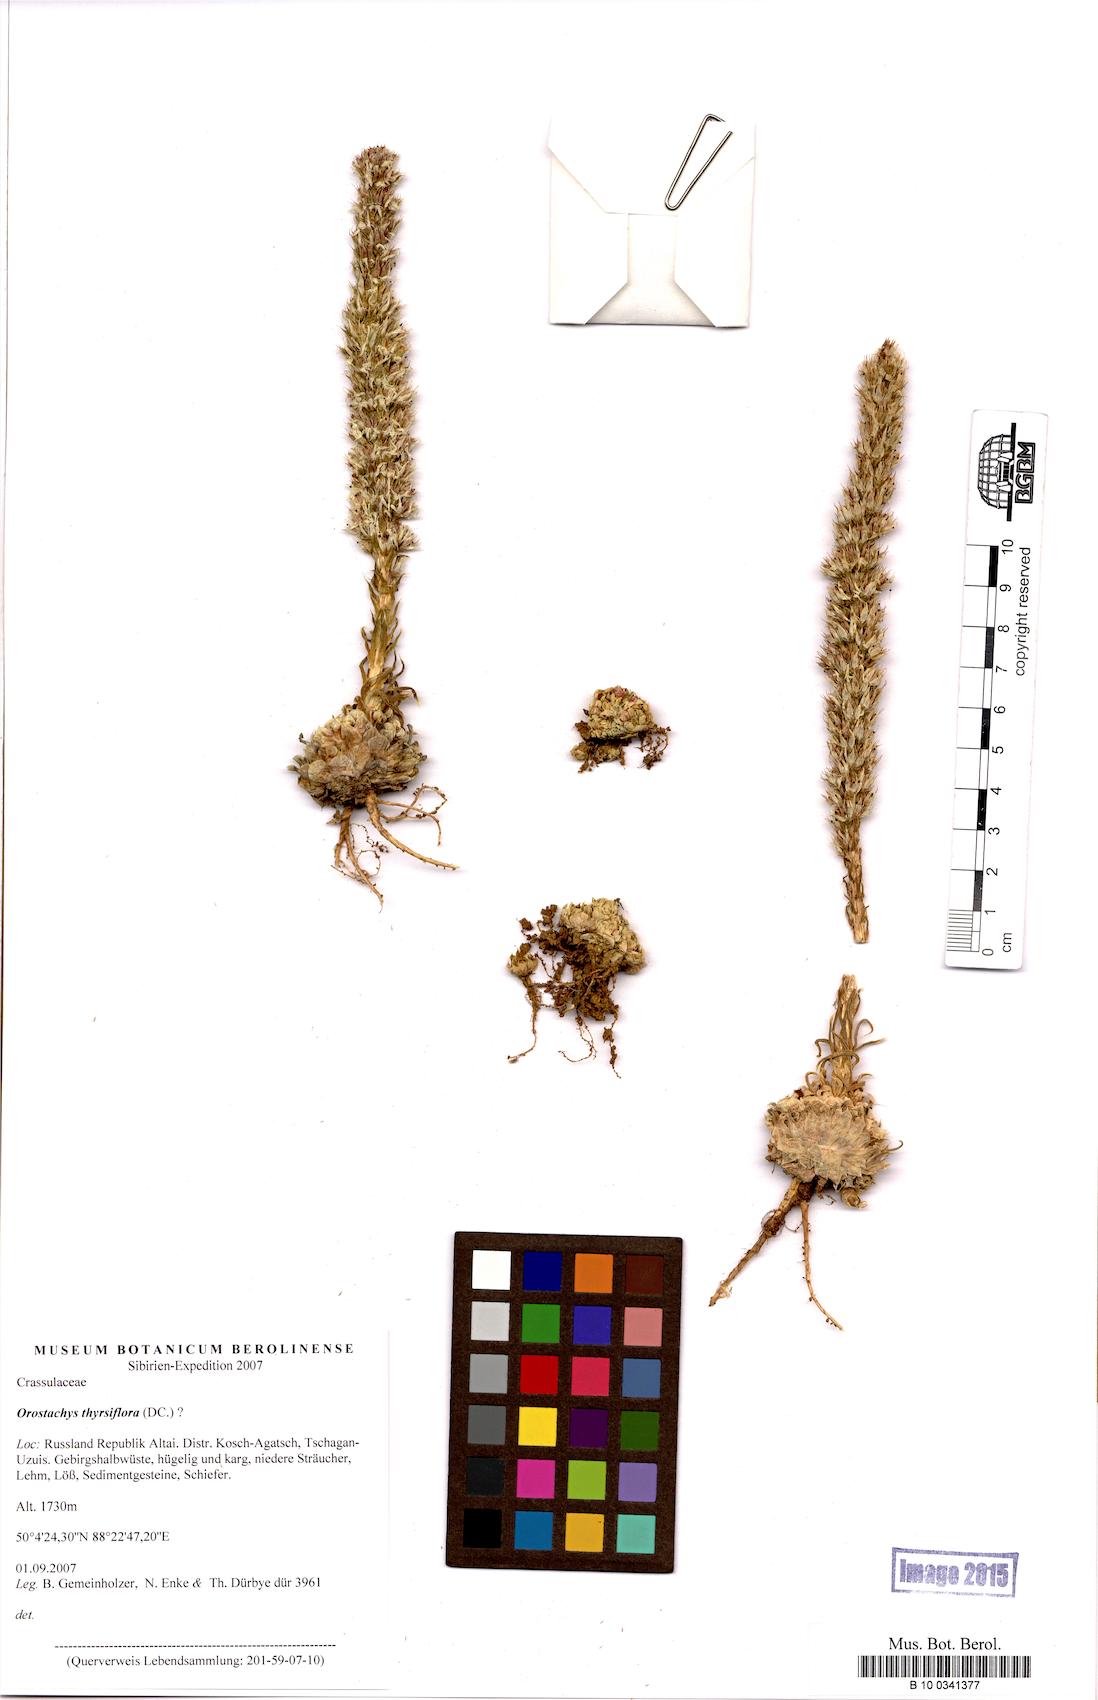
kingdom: Plantae
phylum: Tracheophyta
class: Magnoliopsida
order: Saxifragales
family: Crassulaceae
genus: Orostachys
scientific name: Orostachys thyrsiflora
